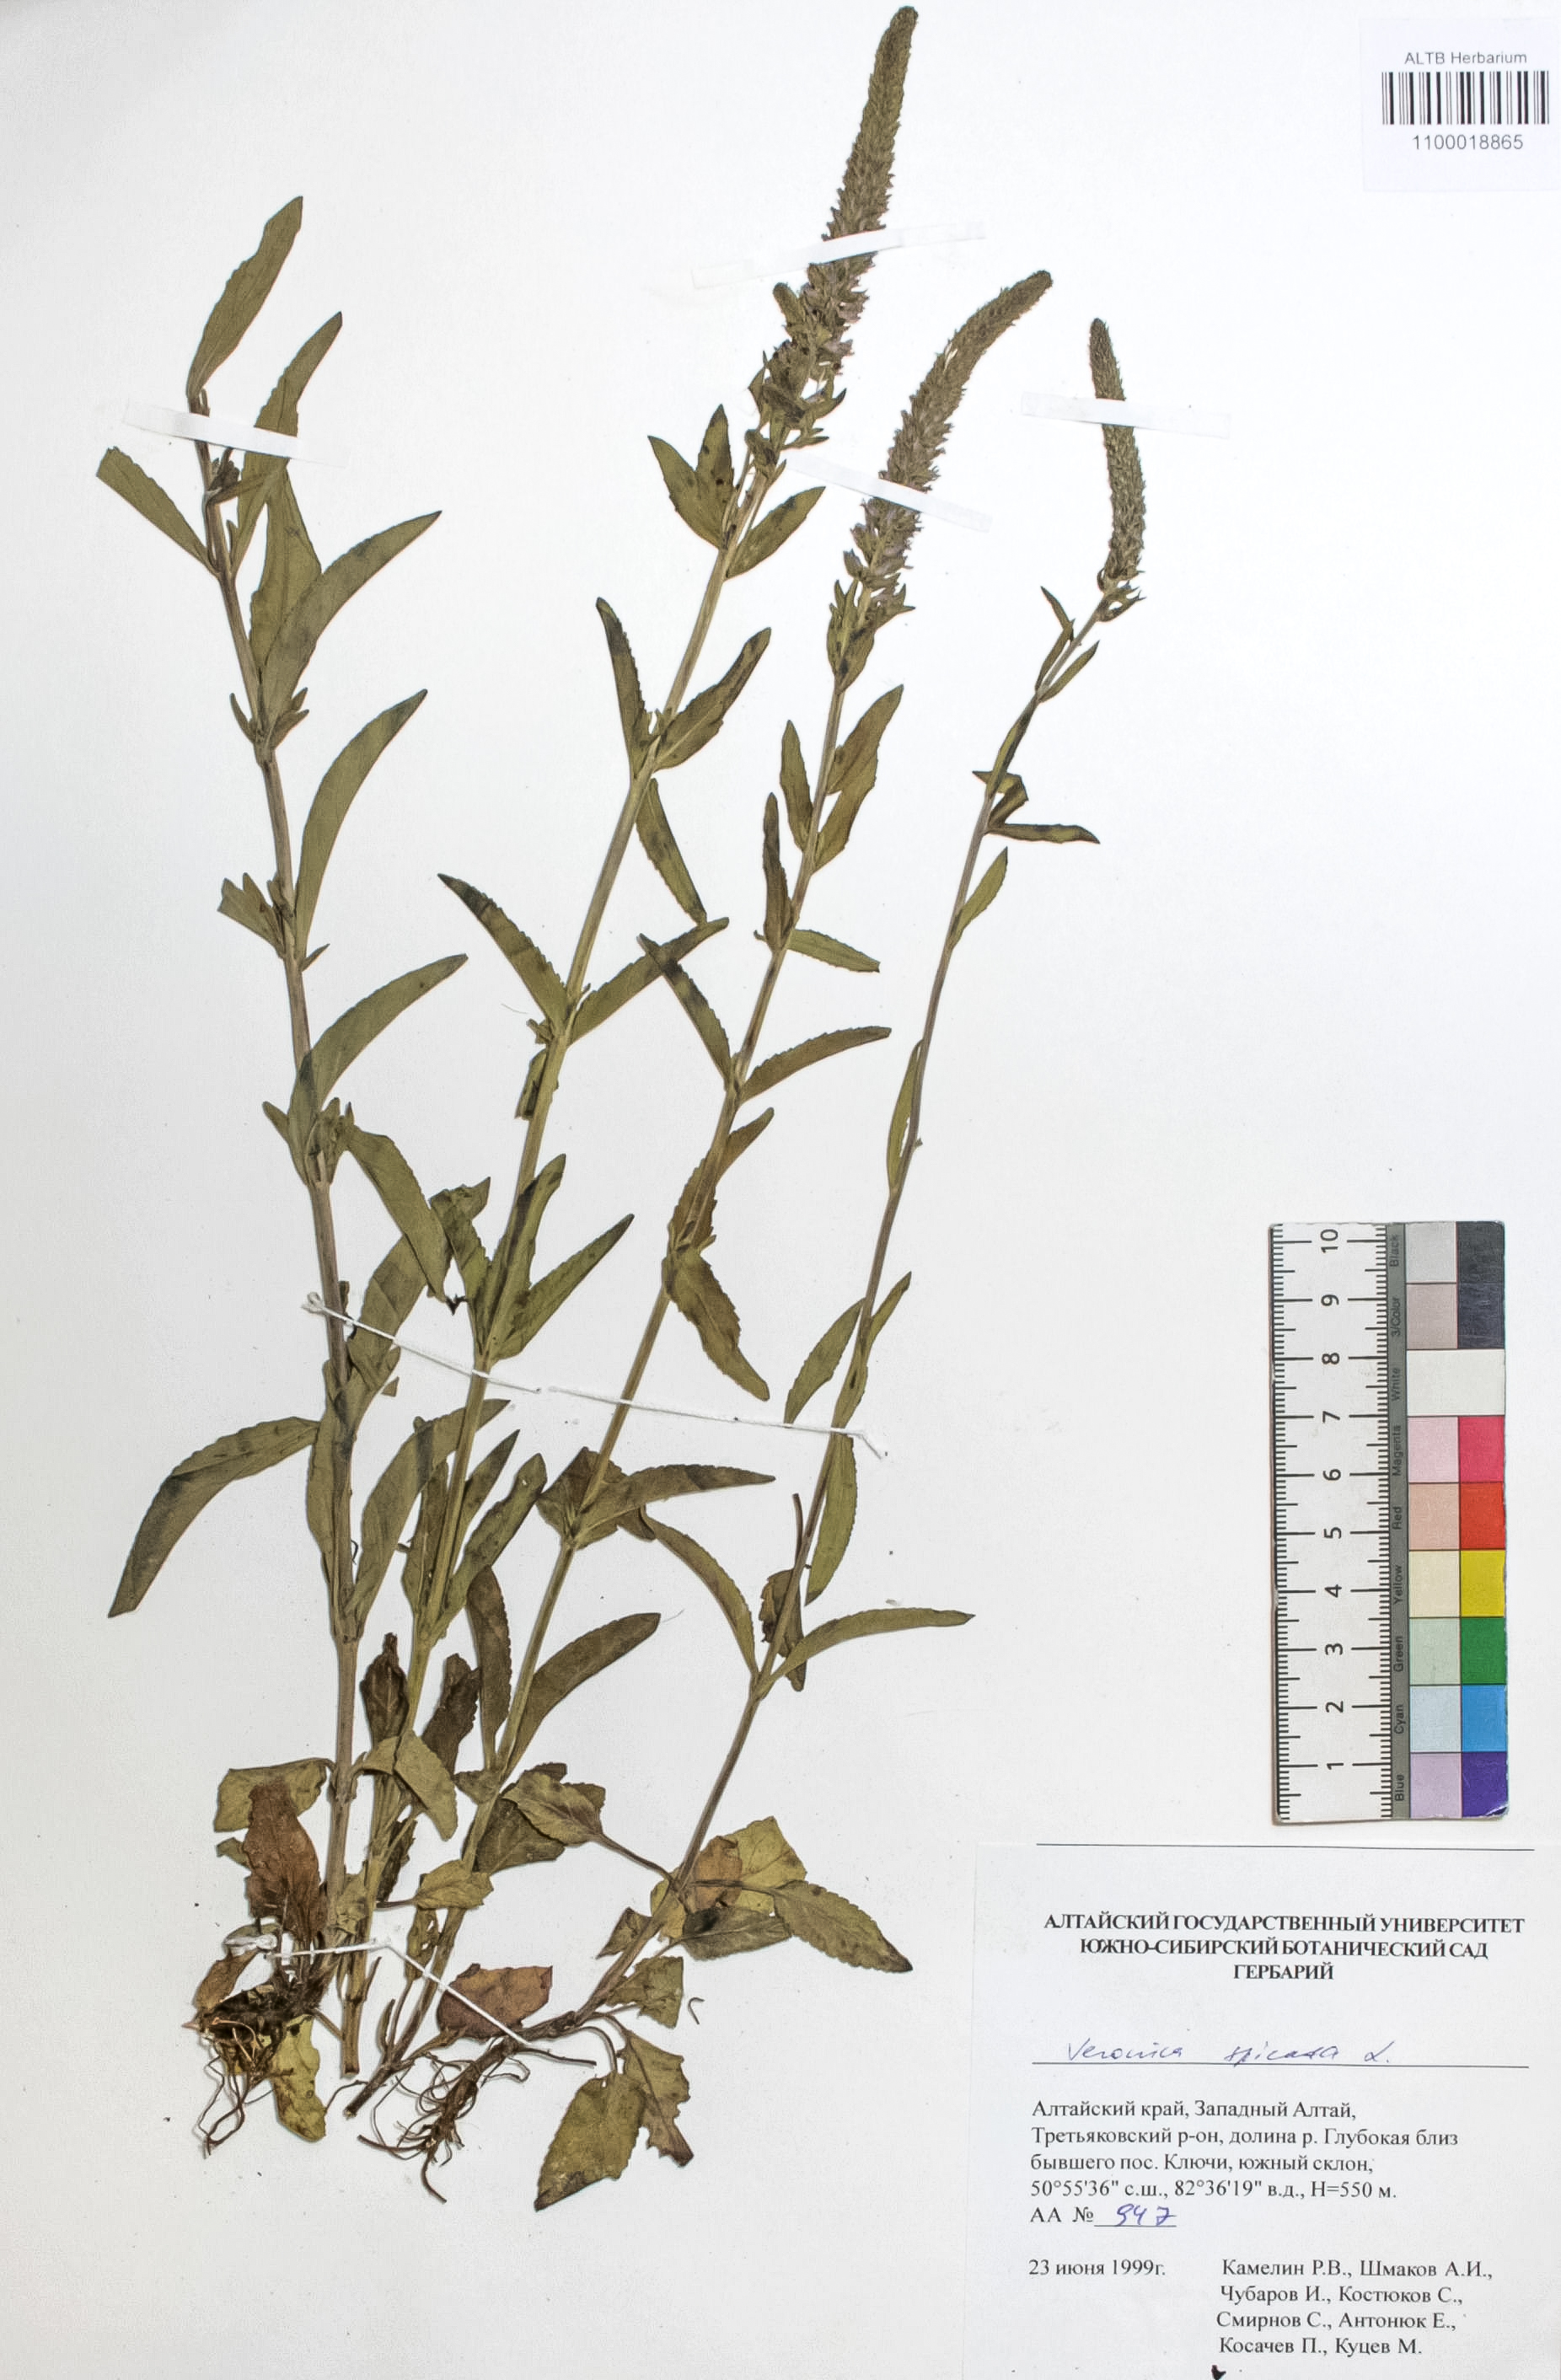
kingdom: Plantae
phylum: Tracheophyta
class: Magnoliopsida
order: Lamiales
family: Plantaginaceae
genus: Veronica
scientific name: Veronica spicata
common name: Spiked speedwell
